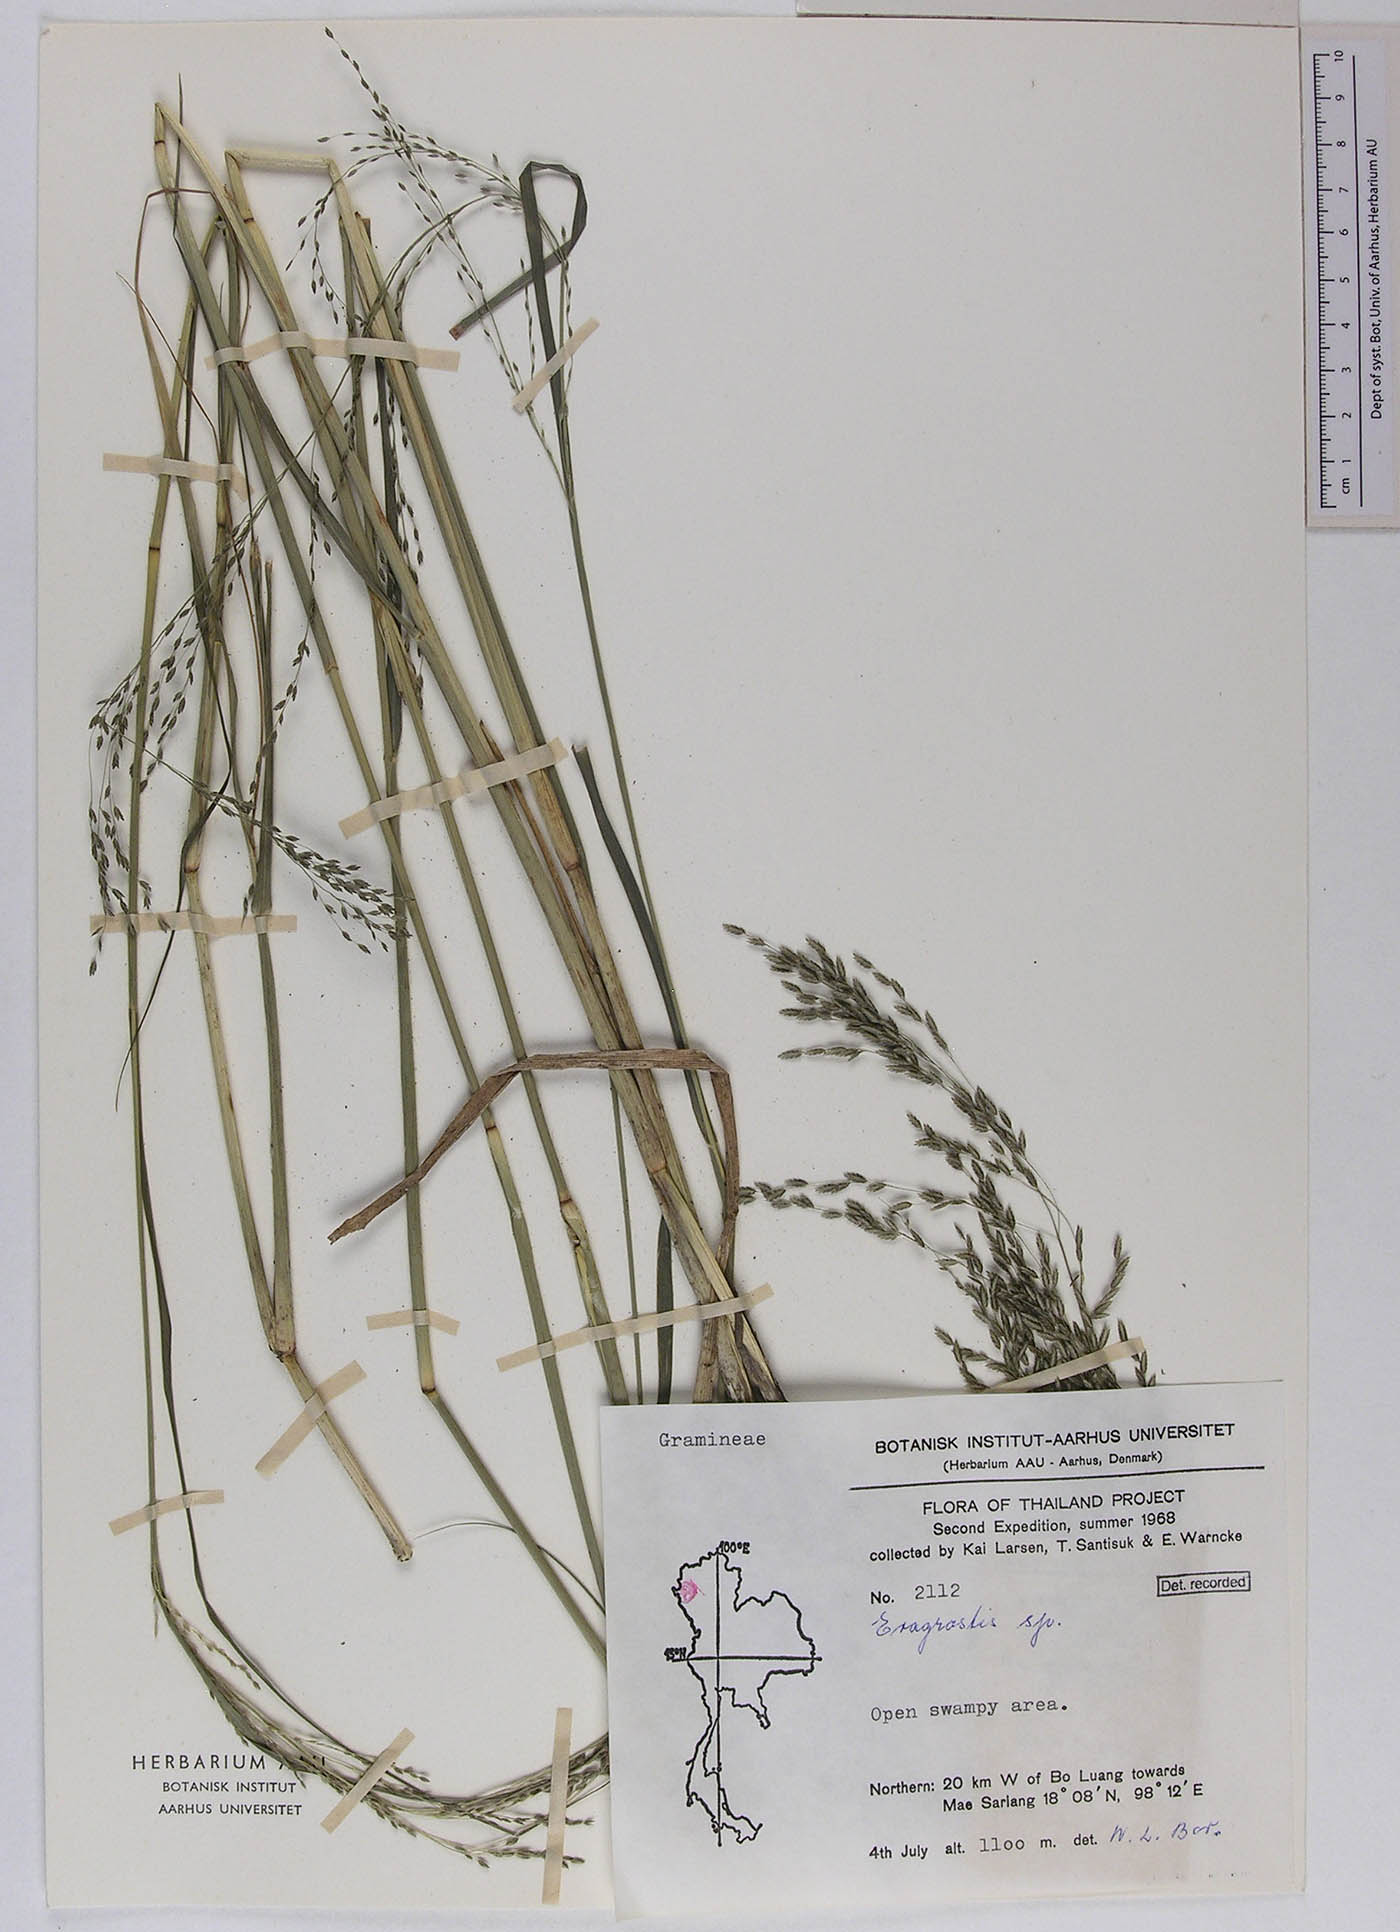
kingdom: Plantae
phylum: Tracheophyta
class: Liliopsida
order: Poales
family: Poaceae
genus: Eragrostis
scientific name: Eragrostis atrovirens
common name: Thalia lovegrass
